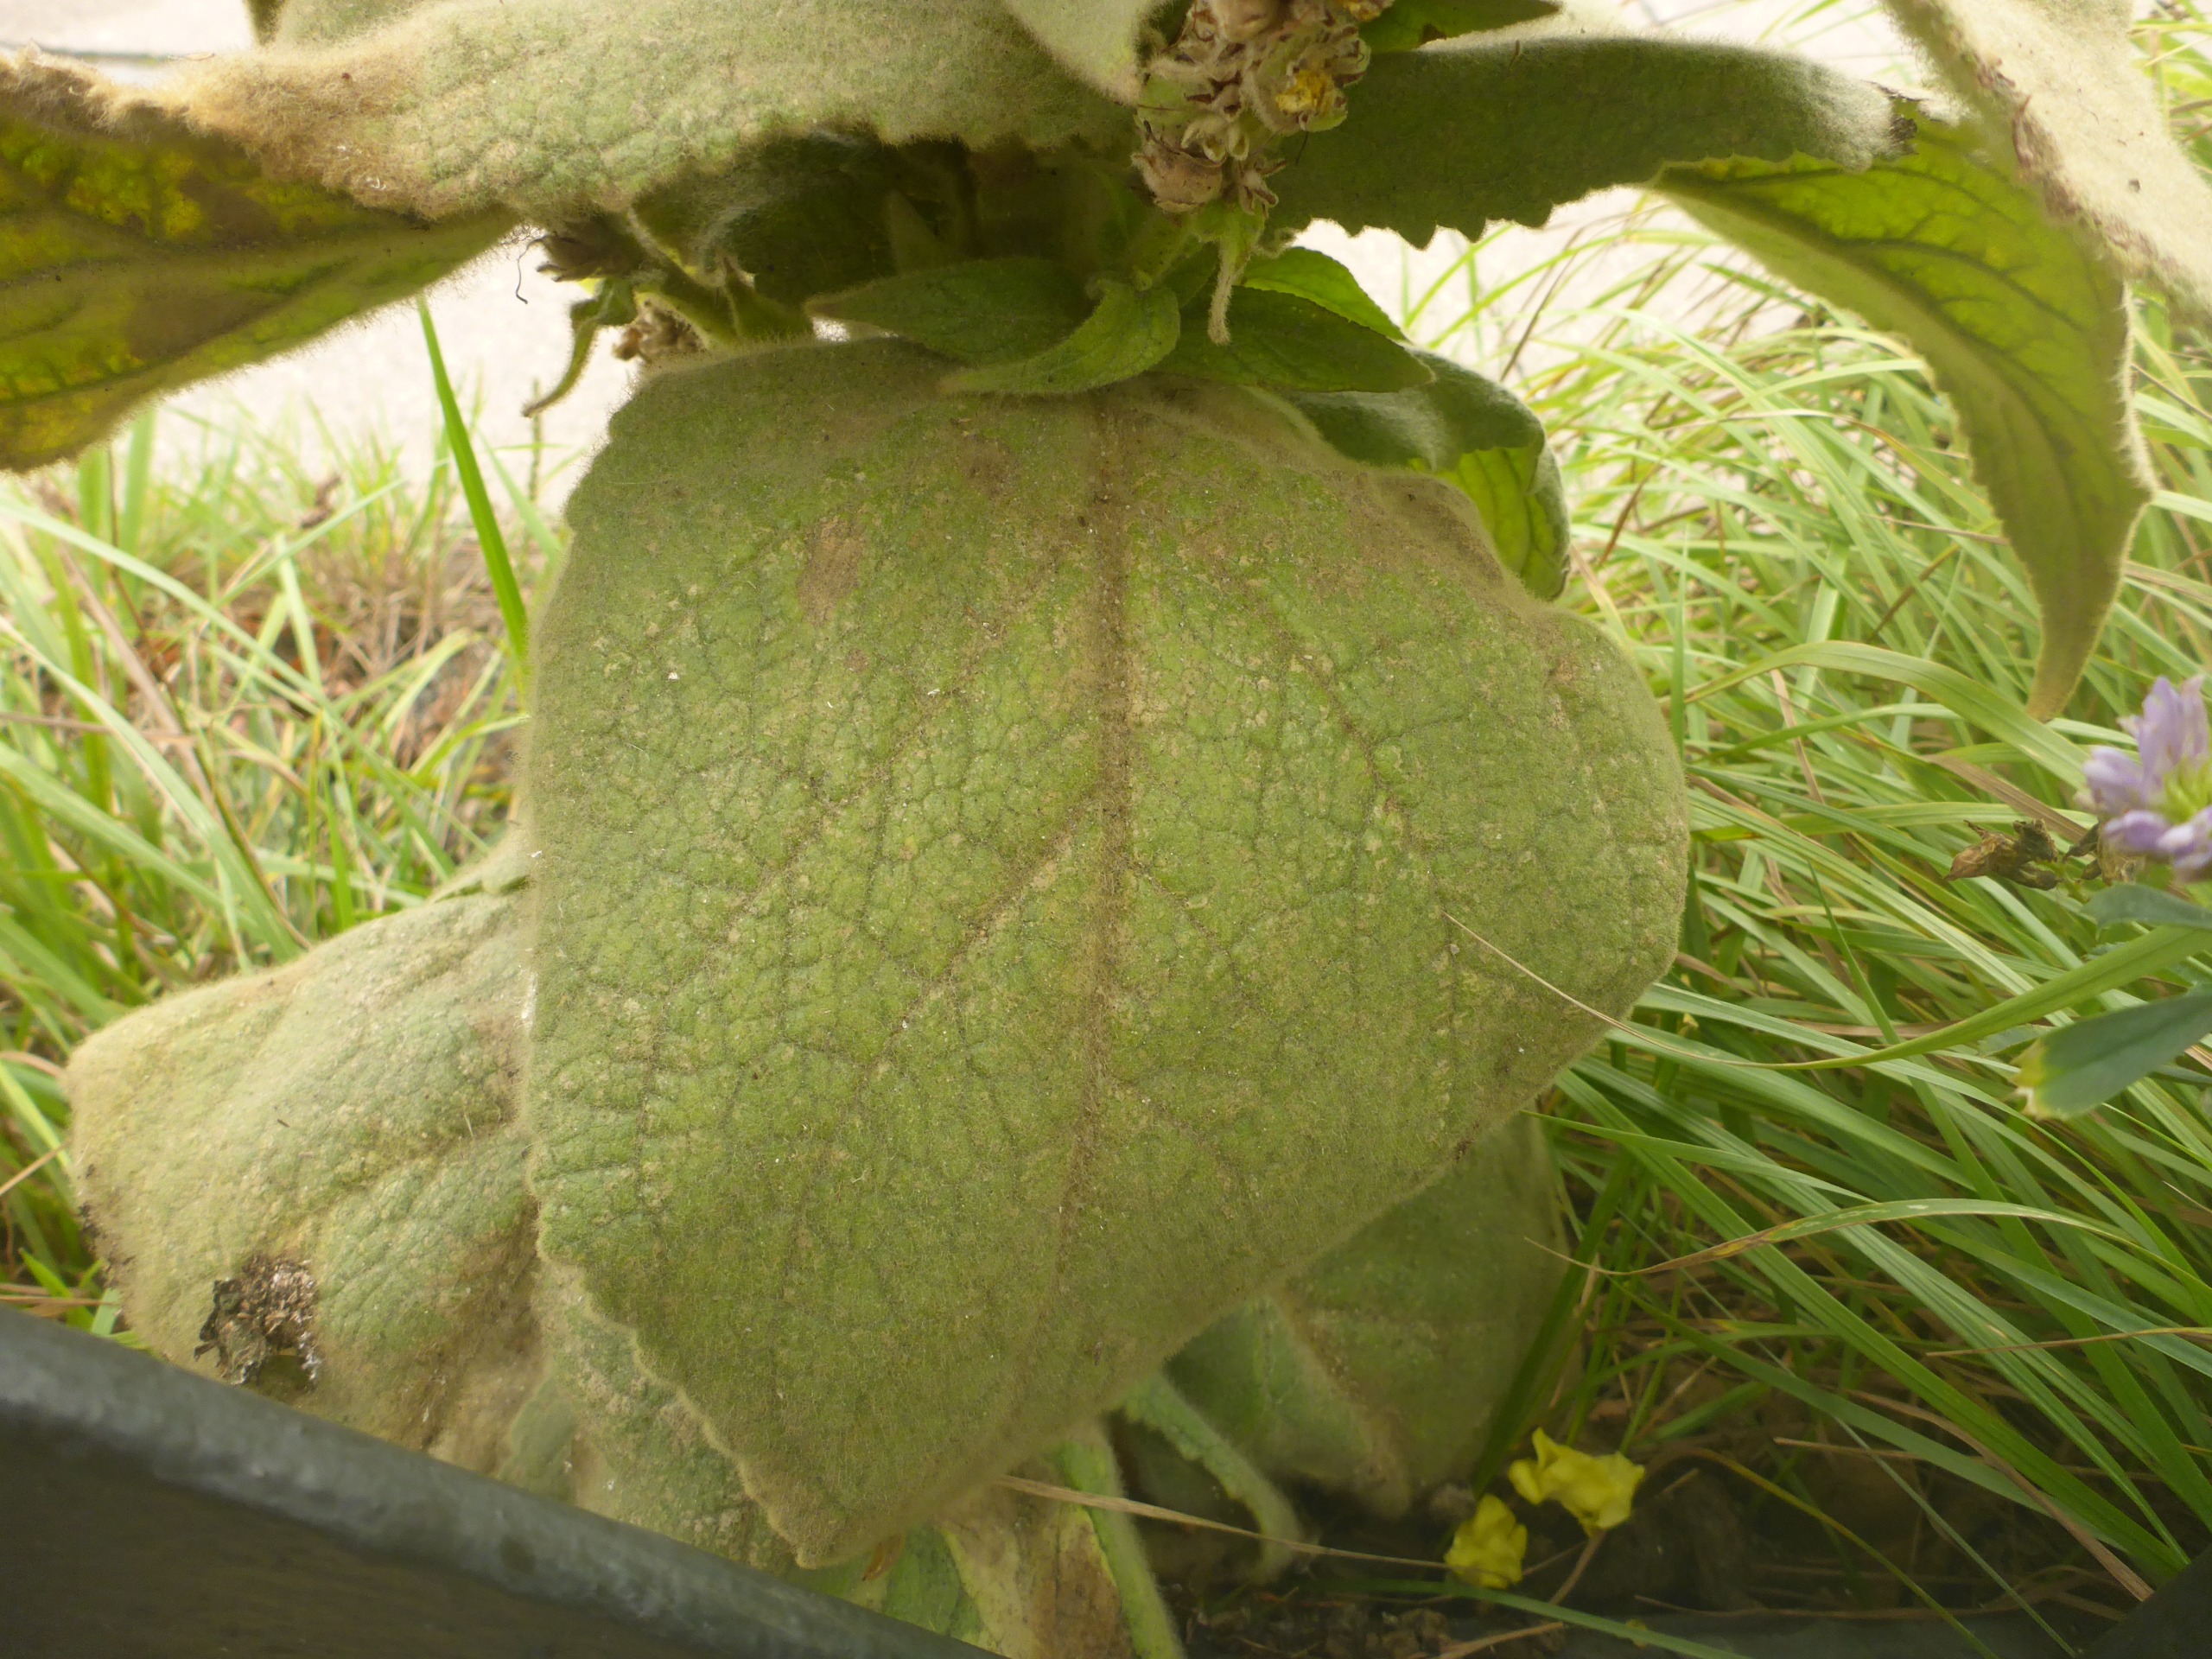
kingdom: Plantae
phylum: Tracheophyta
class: Magnoliopsida
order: Lamiales
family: Scrophulariaceae
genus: Verbascum
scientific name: Verbascum densiflorum
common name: Uldbladet kongelys
